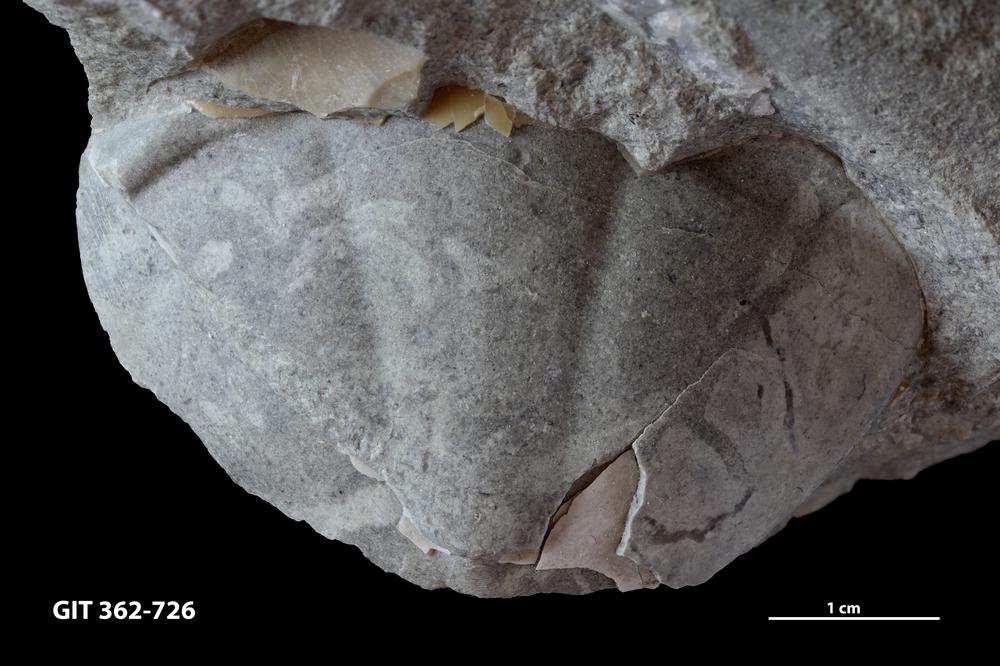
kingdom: Animalia
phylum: Arthropoda
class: Trilobita
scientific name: Trilobita
